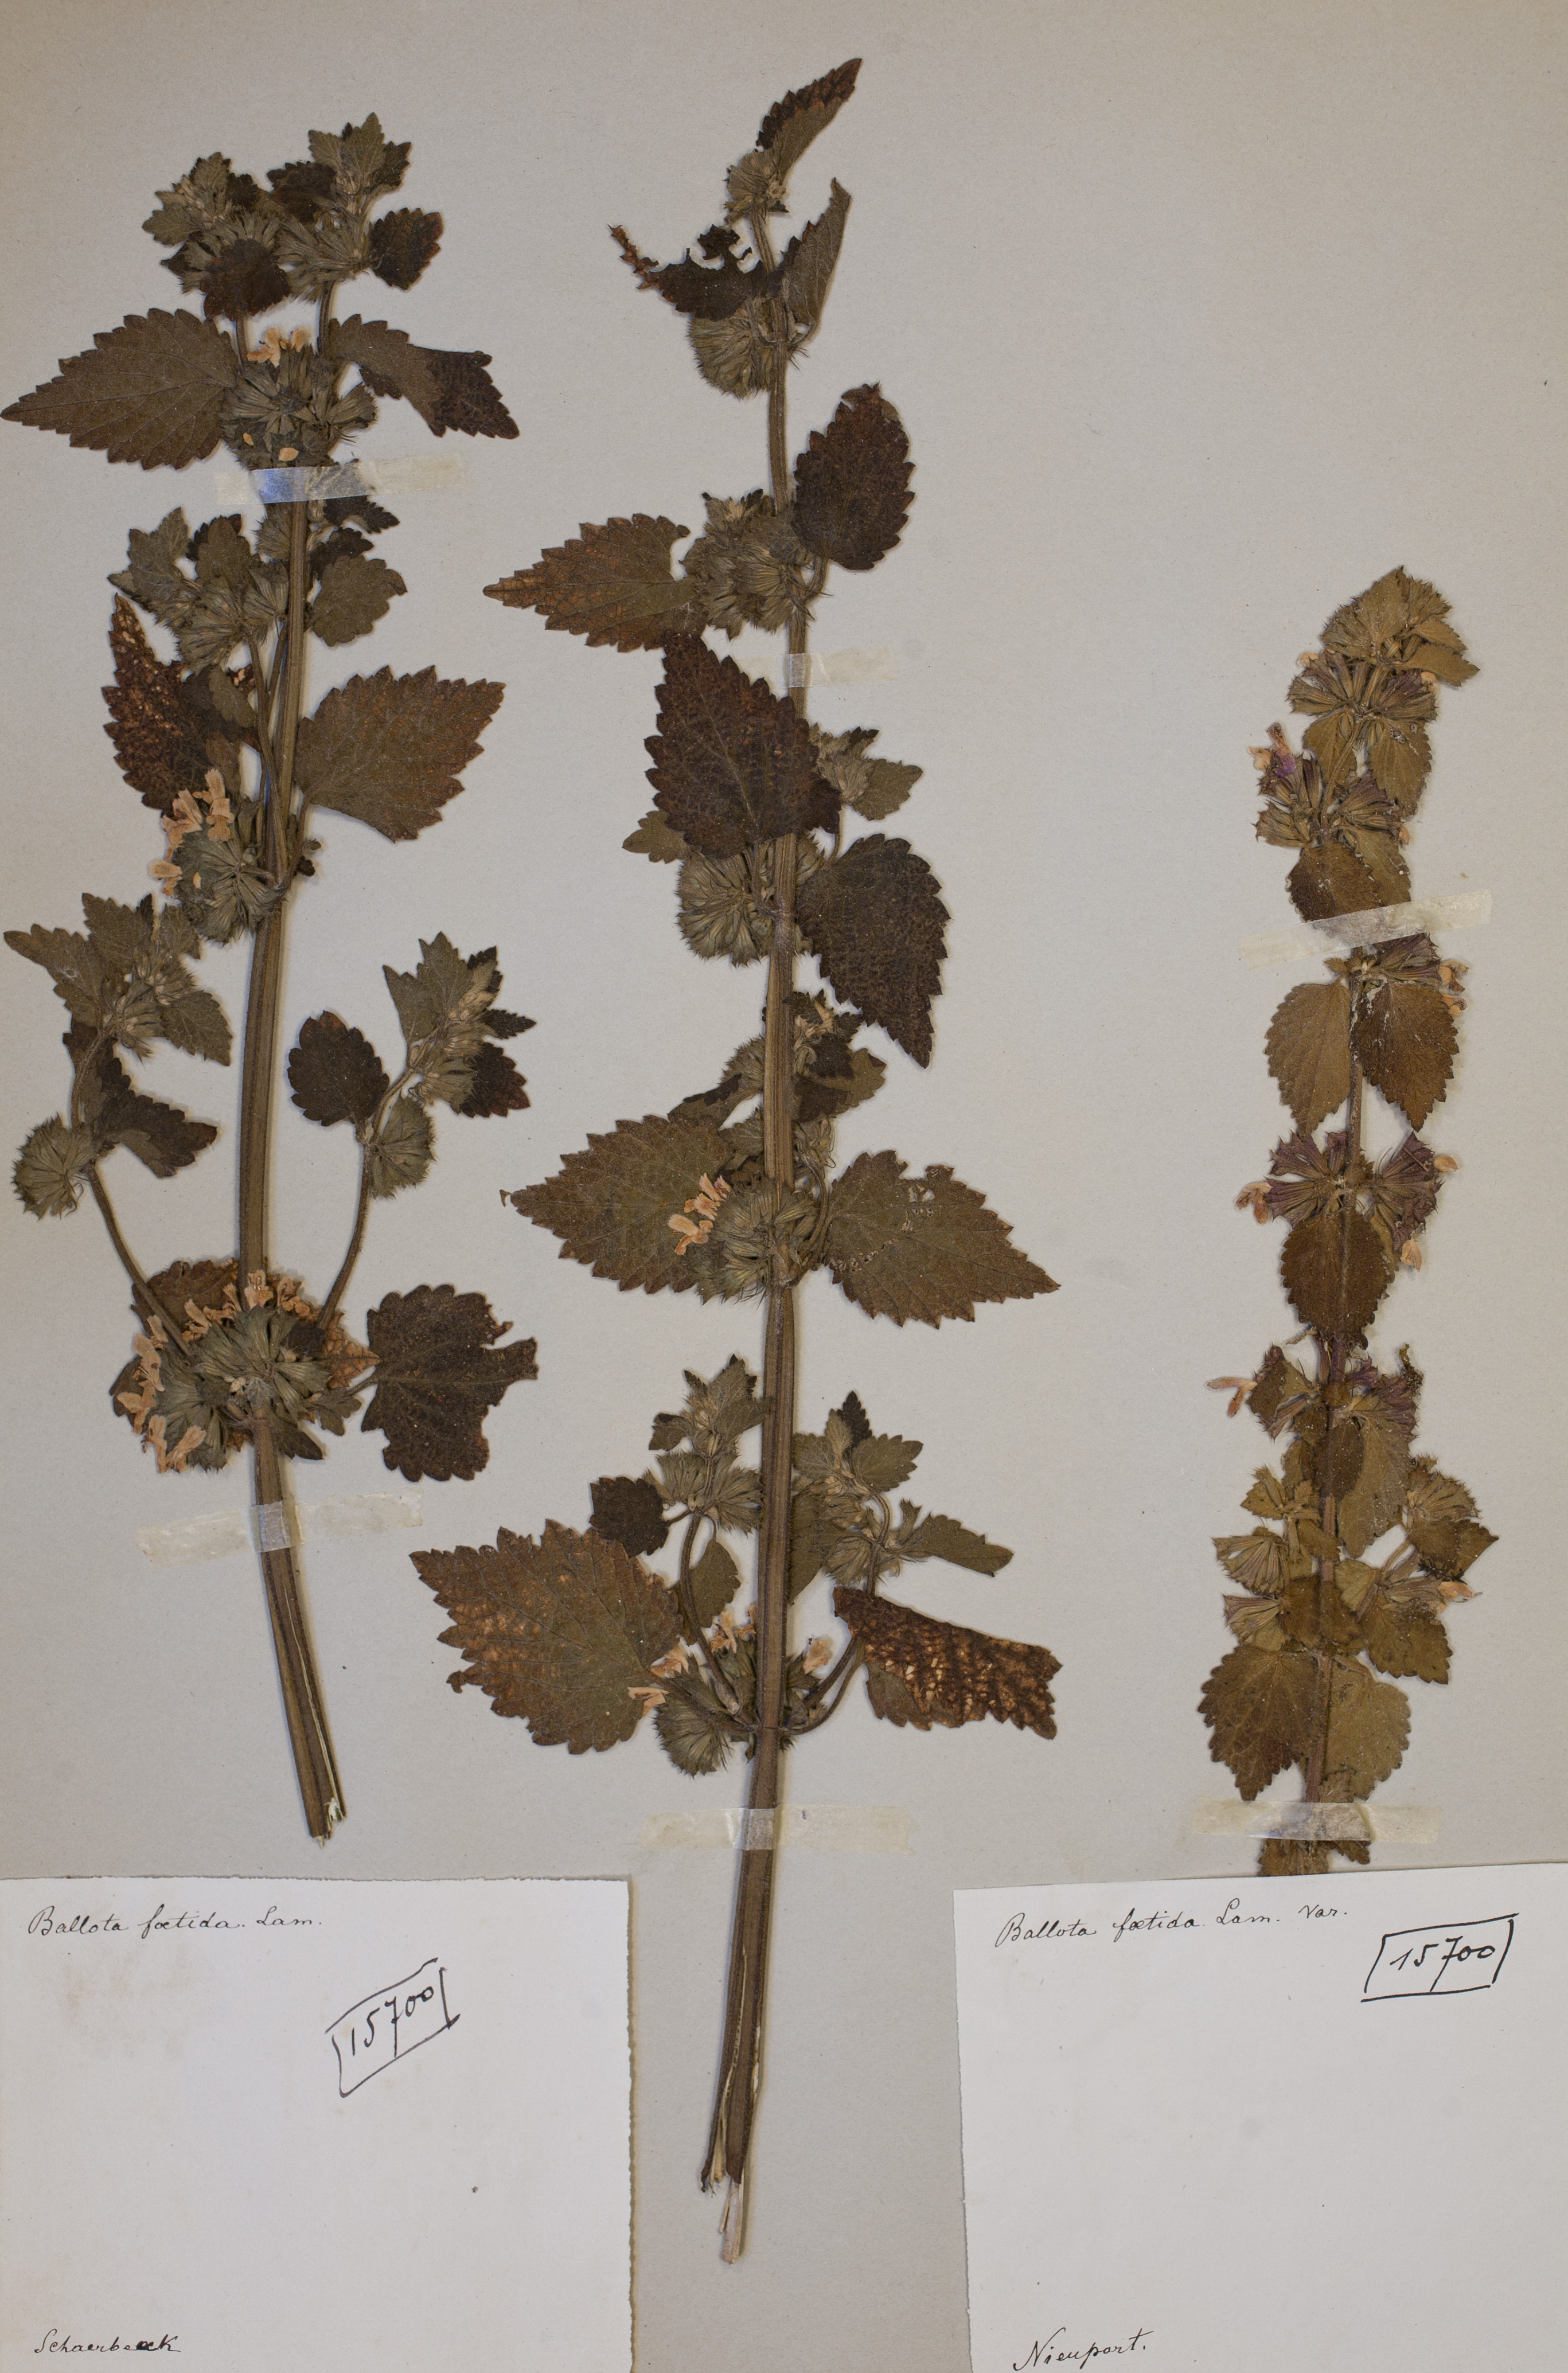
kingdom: Plantae
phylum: Tracheophyta
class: Magnoliopsida
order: Lamiales
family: Lamiaceae
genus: Ballota
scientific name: Ballota nigra
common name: Black horehound
